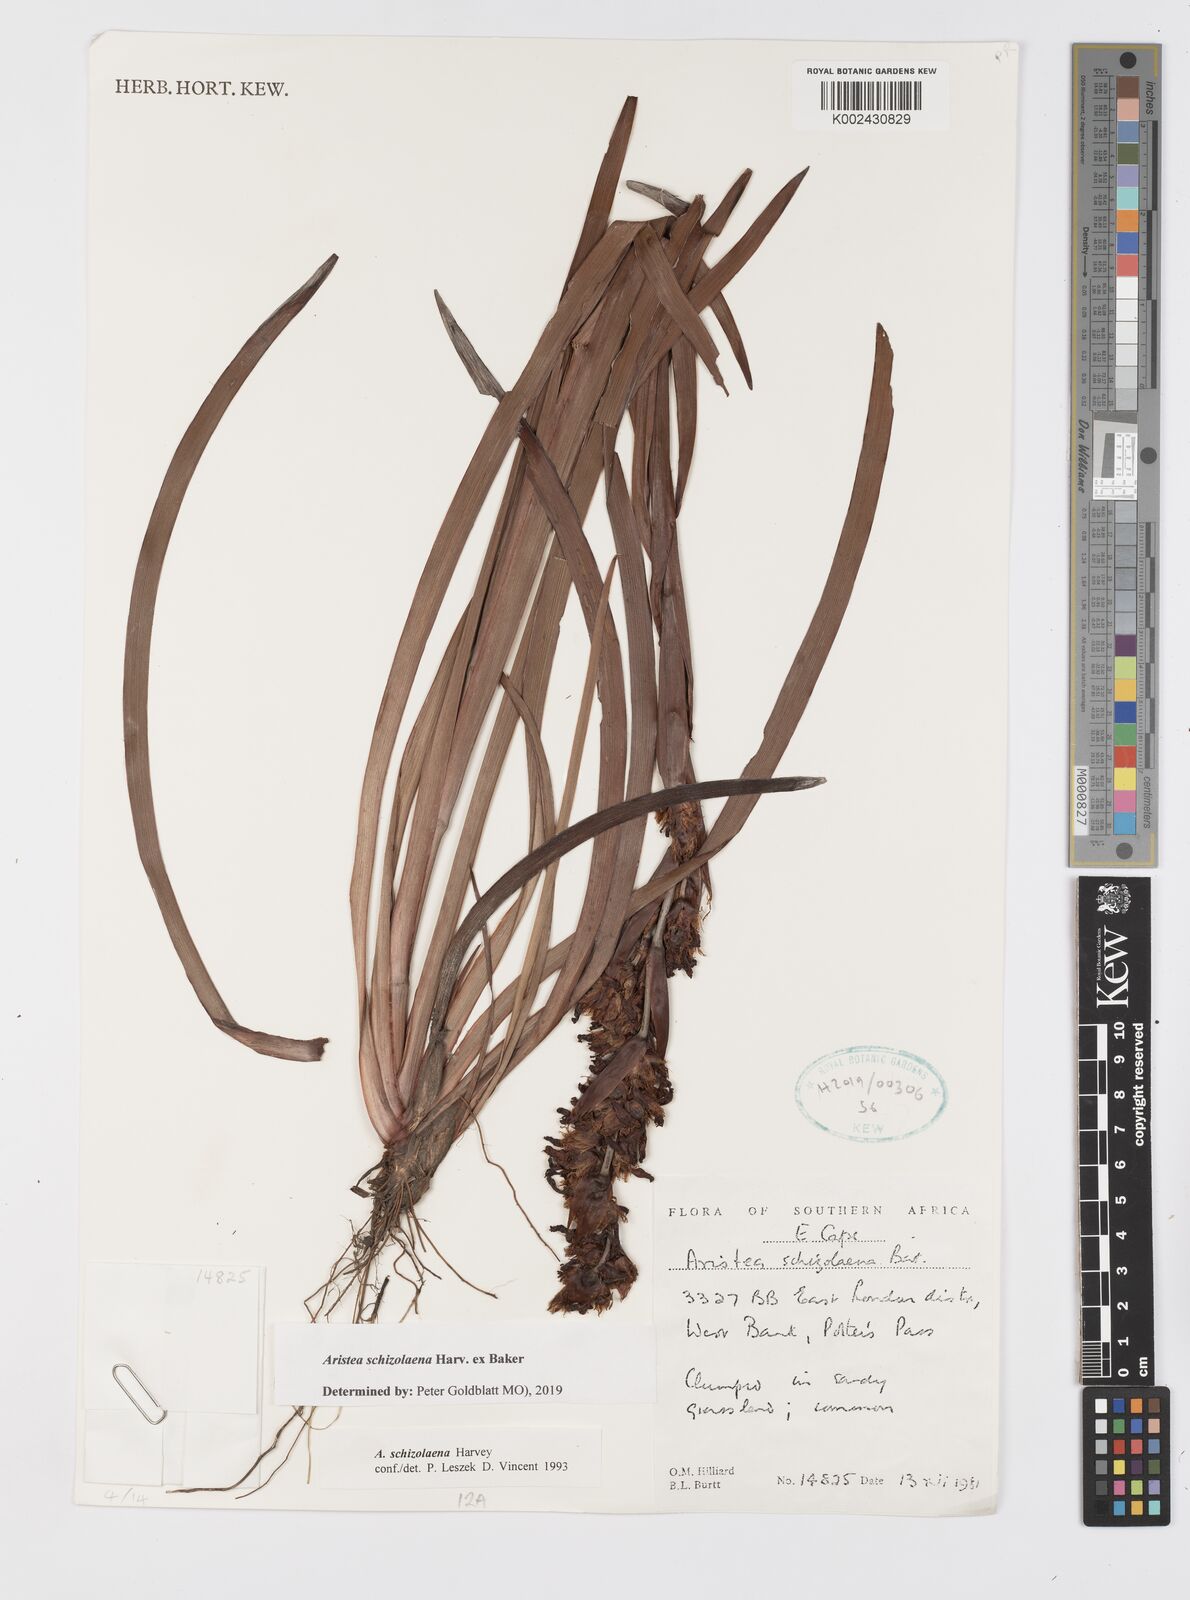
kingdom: Plantae
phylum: Tracheophyta
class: Liliopsida
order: Asparagales
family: Iridaceae
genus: Aristea
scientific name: Aristea schizolaena
